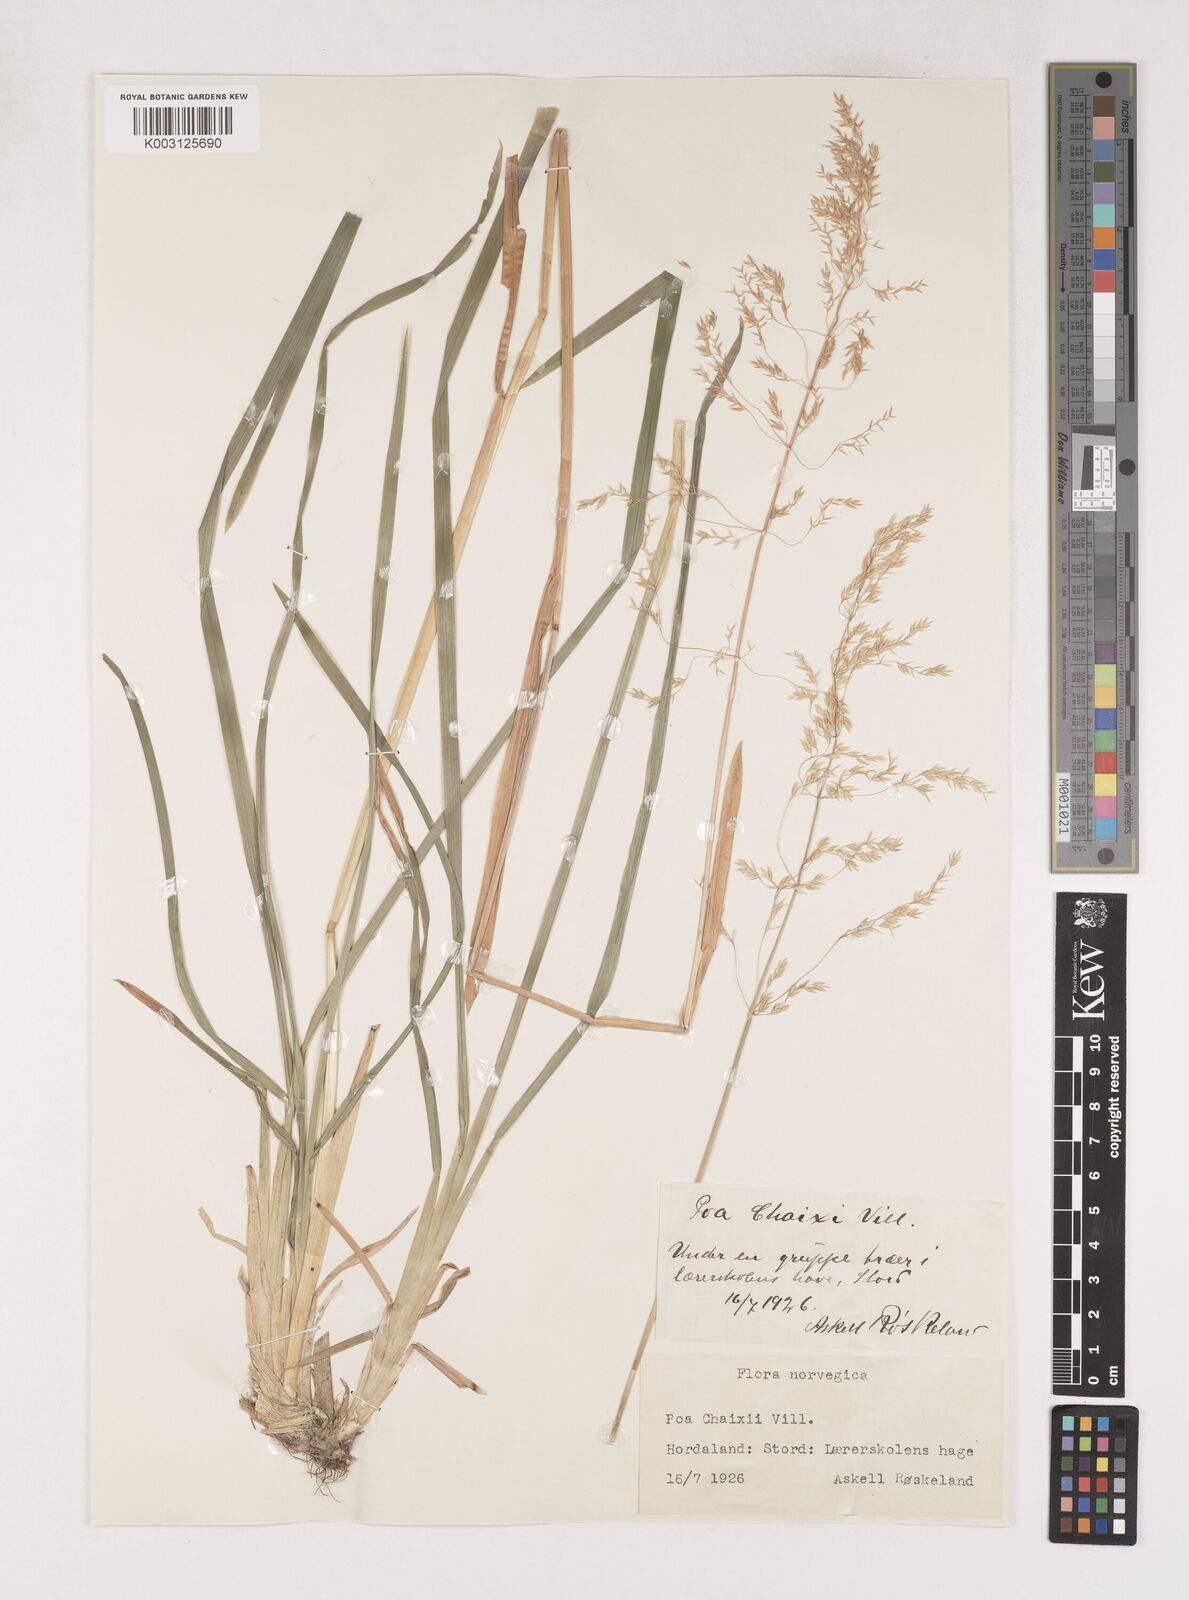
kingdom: Plantae
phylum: Tracheophyta
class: Liliopsida
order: Poales
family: Poaceae
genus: Poa
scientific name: Poa chaixii
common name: Broad-leaved meadow-grass
